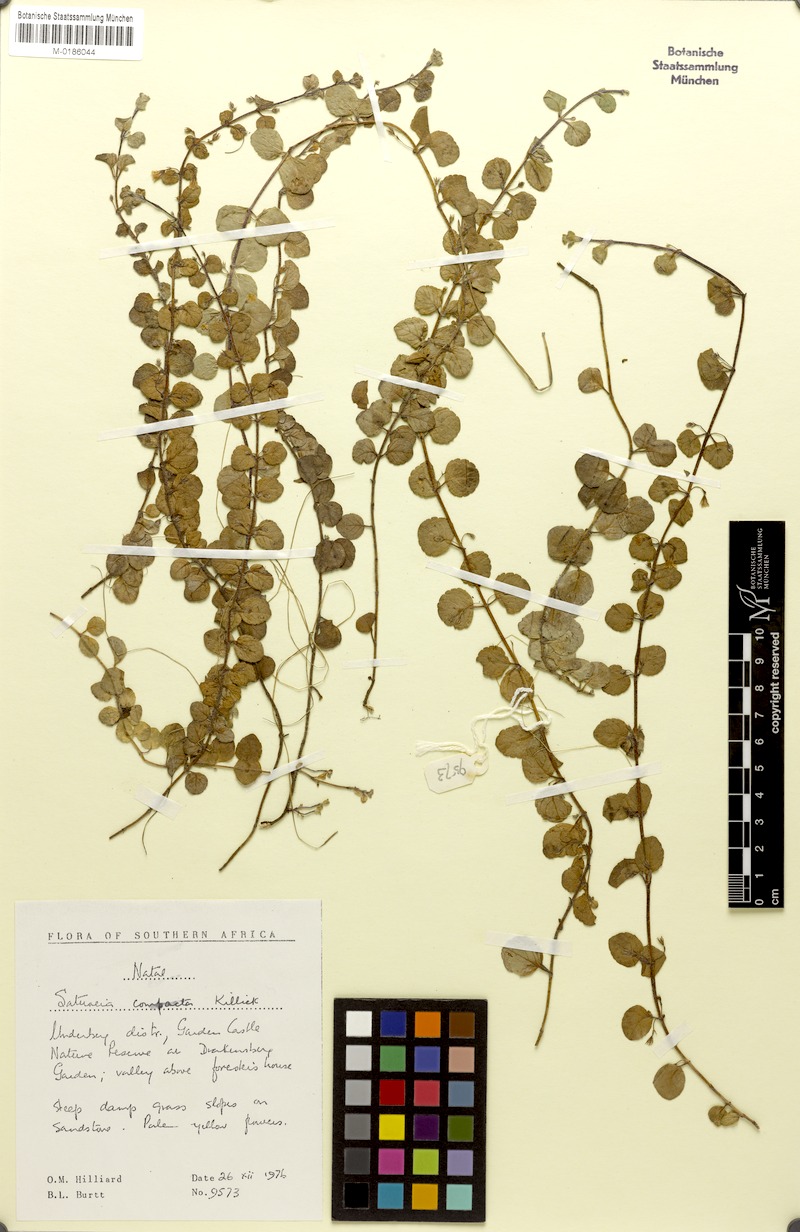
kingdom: Plantae
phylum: Tracheophyta
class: Magnoliopsida
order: Lamiales
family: Lamiaceae
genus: Killickia
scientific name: Killickia lutea
